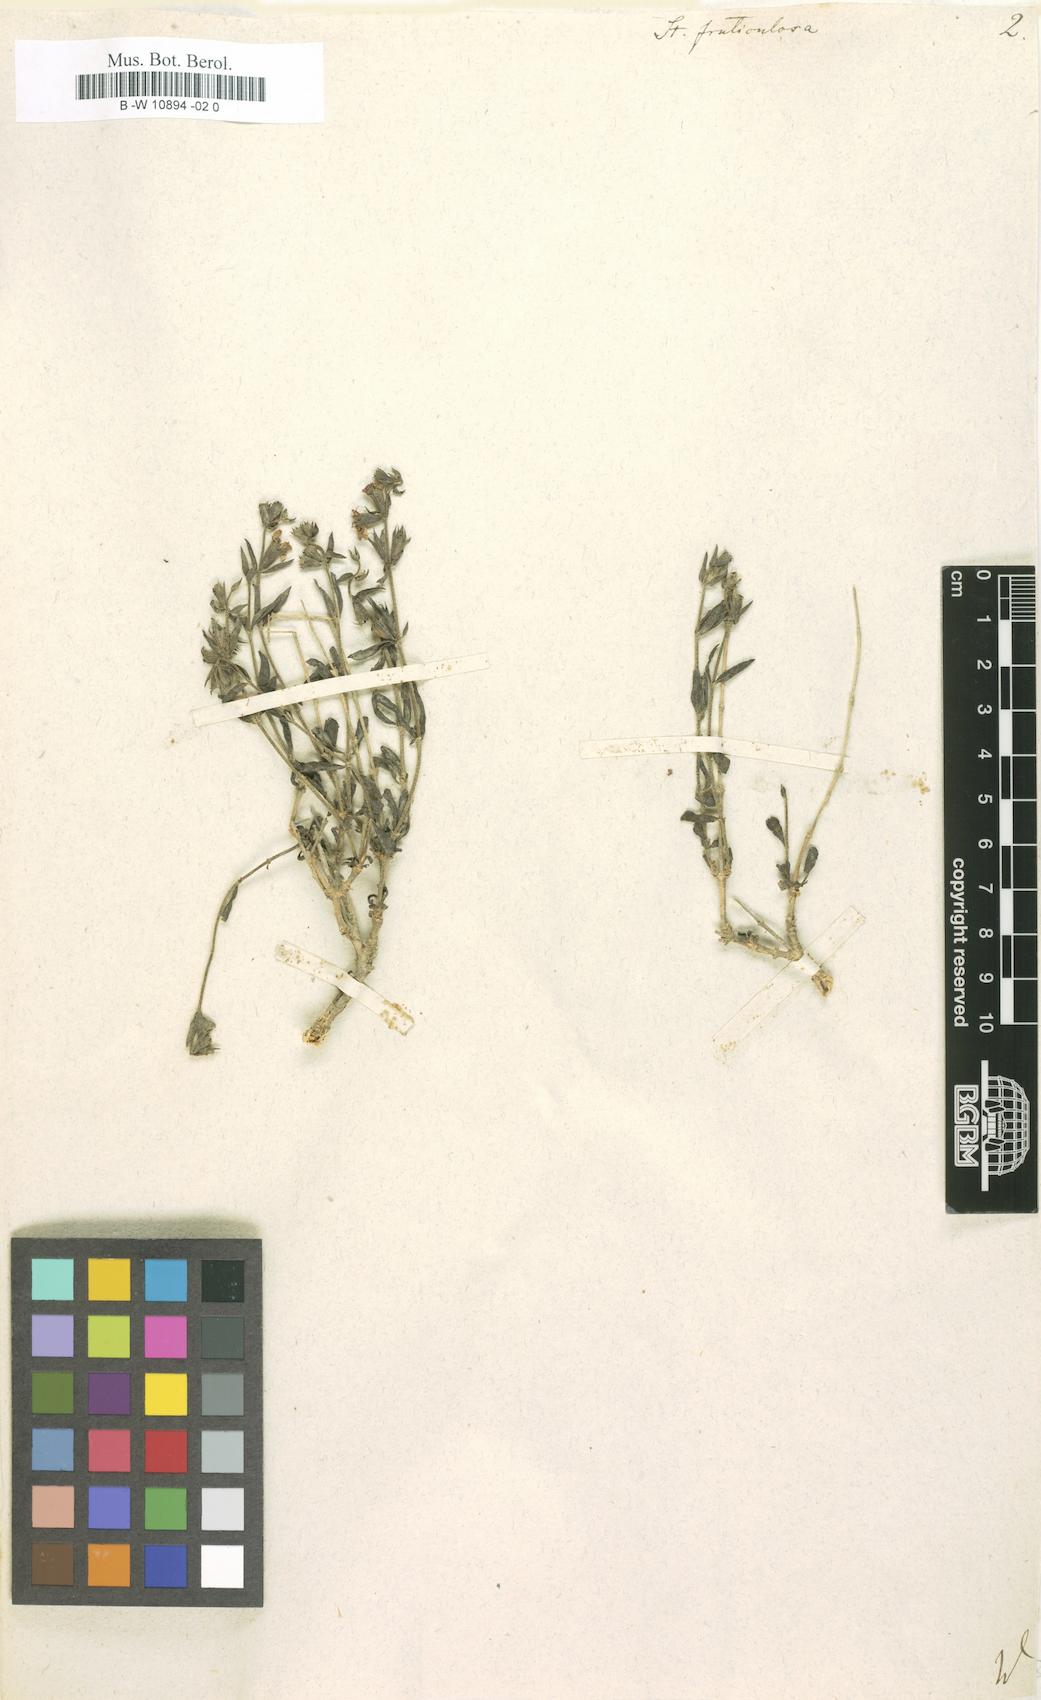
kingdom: Plantae
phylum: Tracheophyta
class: Magnoliopsida
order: Lamiales
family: Lamiaceae
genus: Stachys
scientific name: Stachys fruticulosa
